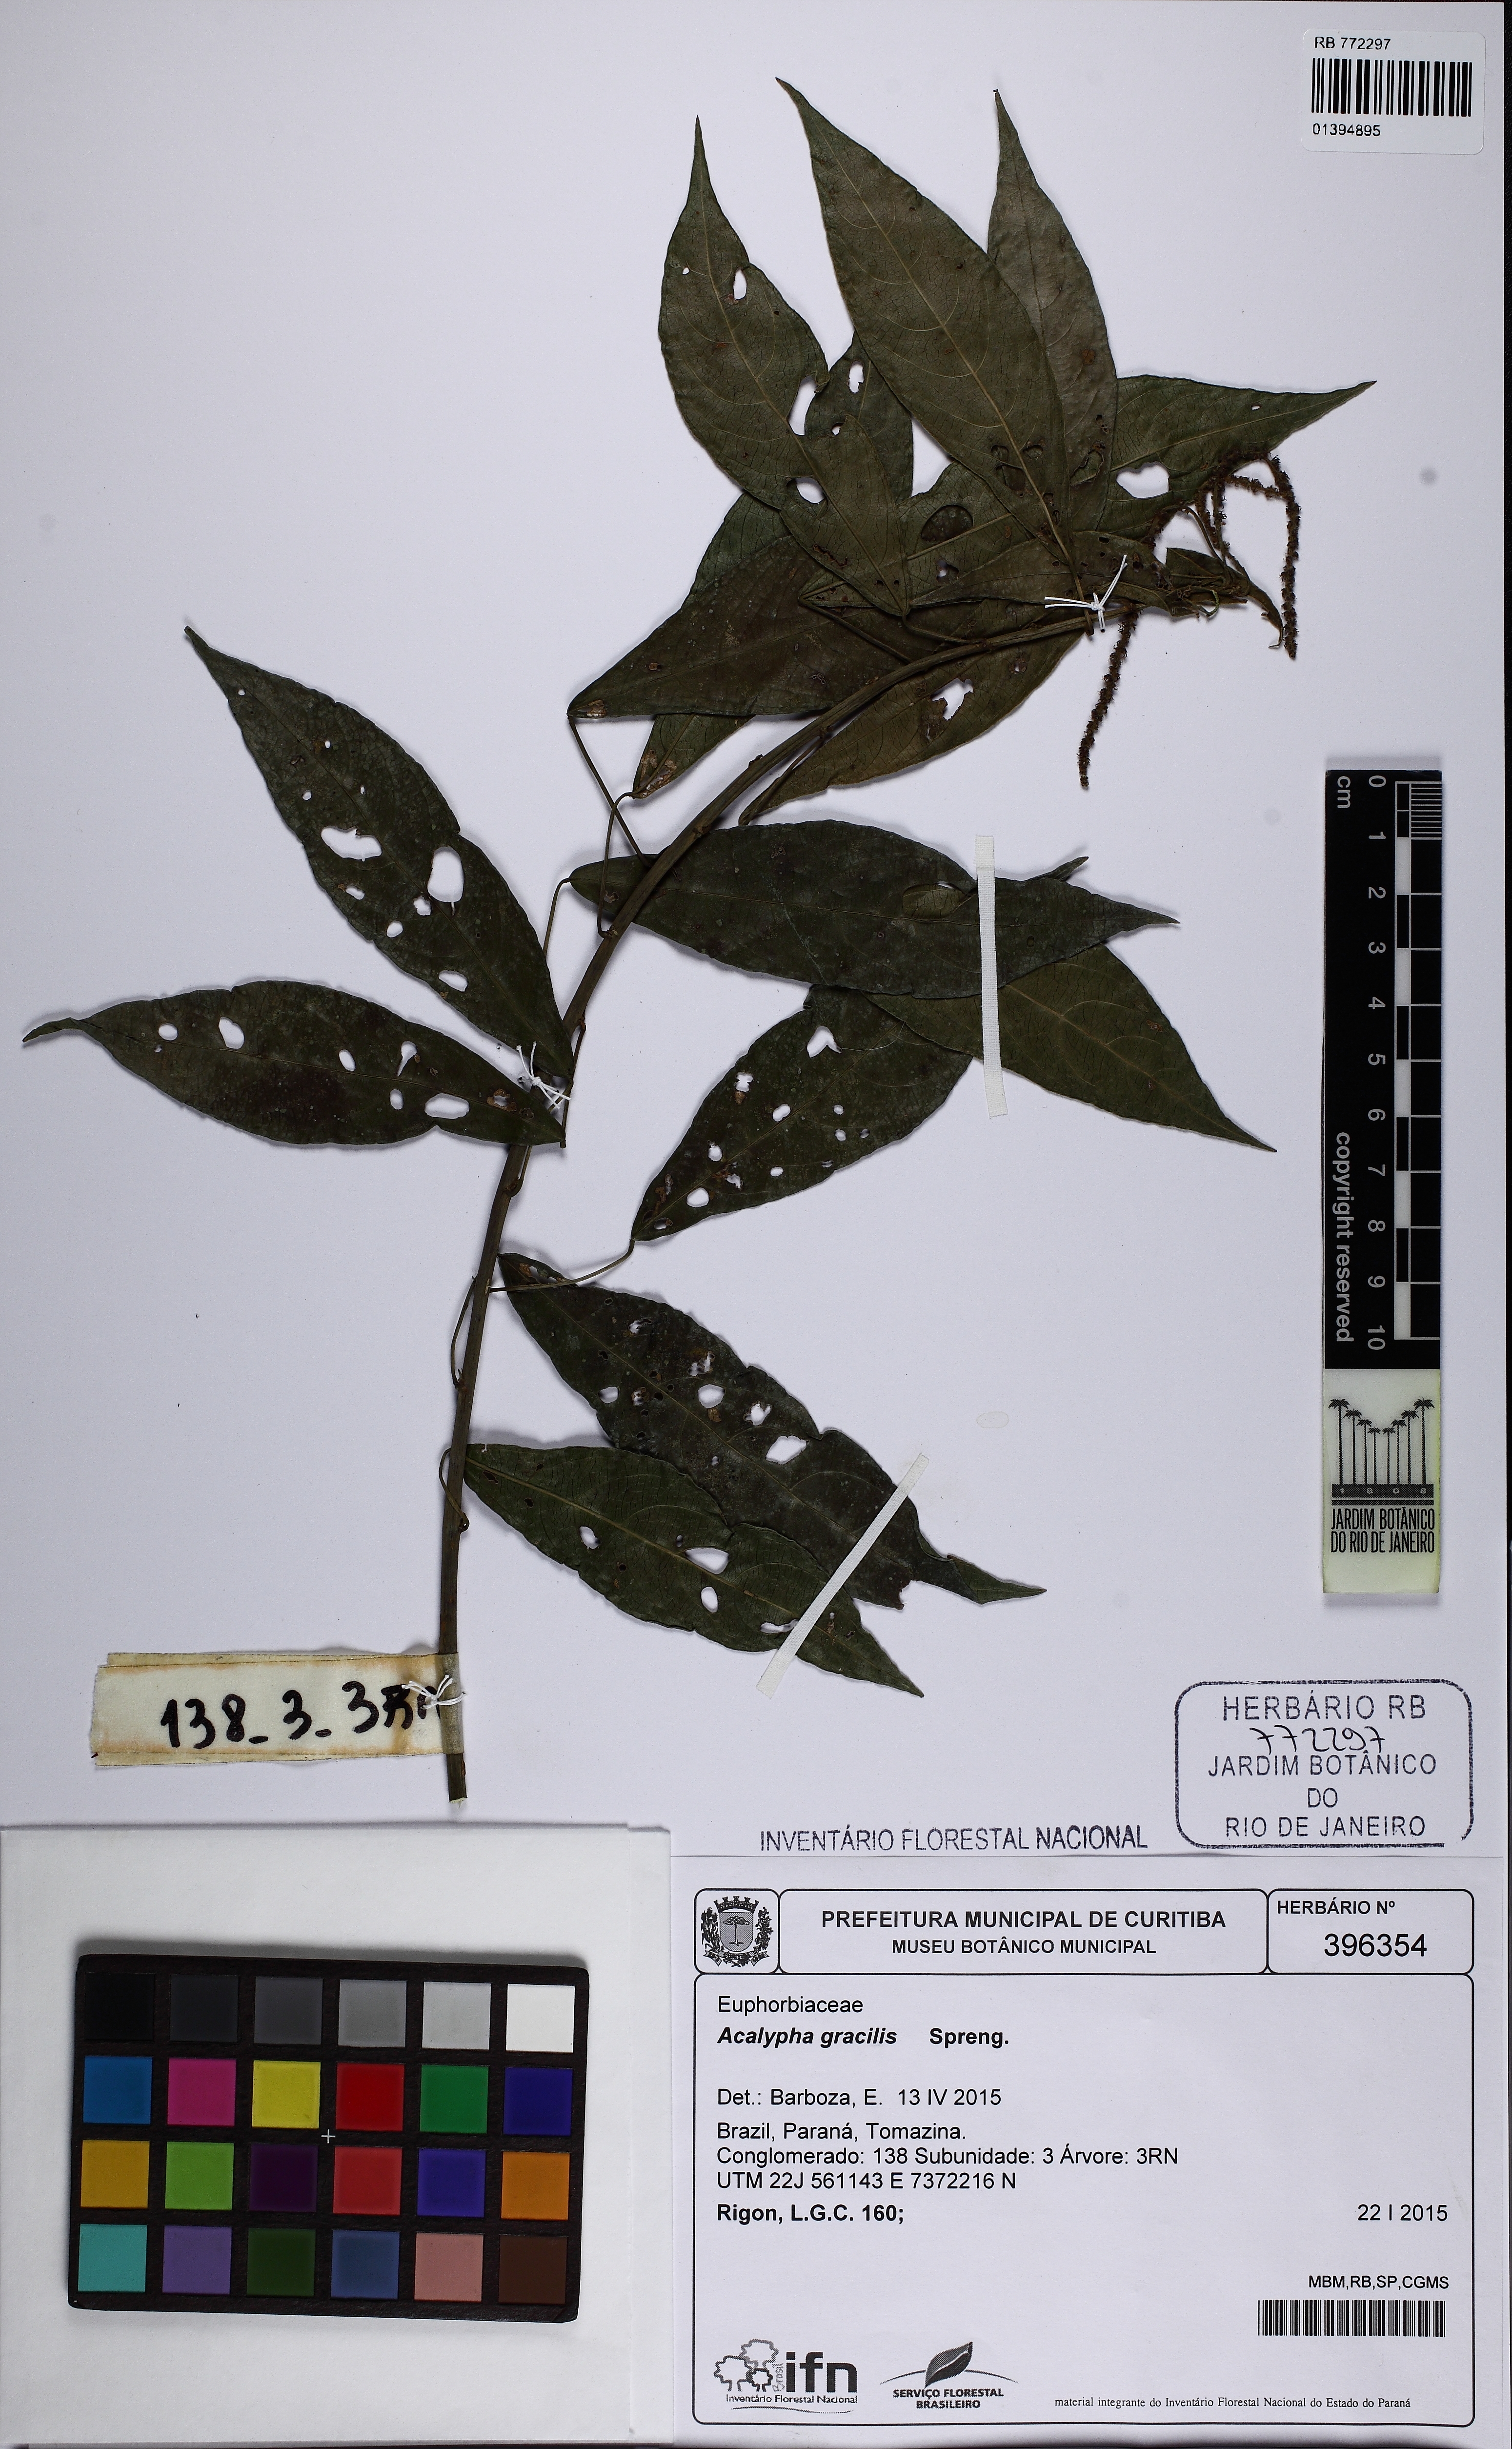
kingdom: Plantae
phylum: Tracheophyta
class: Magnoliopsida
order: Malpighiales
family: Euphorbiaceae
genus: Acalypha
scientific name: Acalypha gracilis
